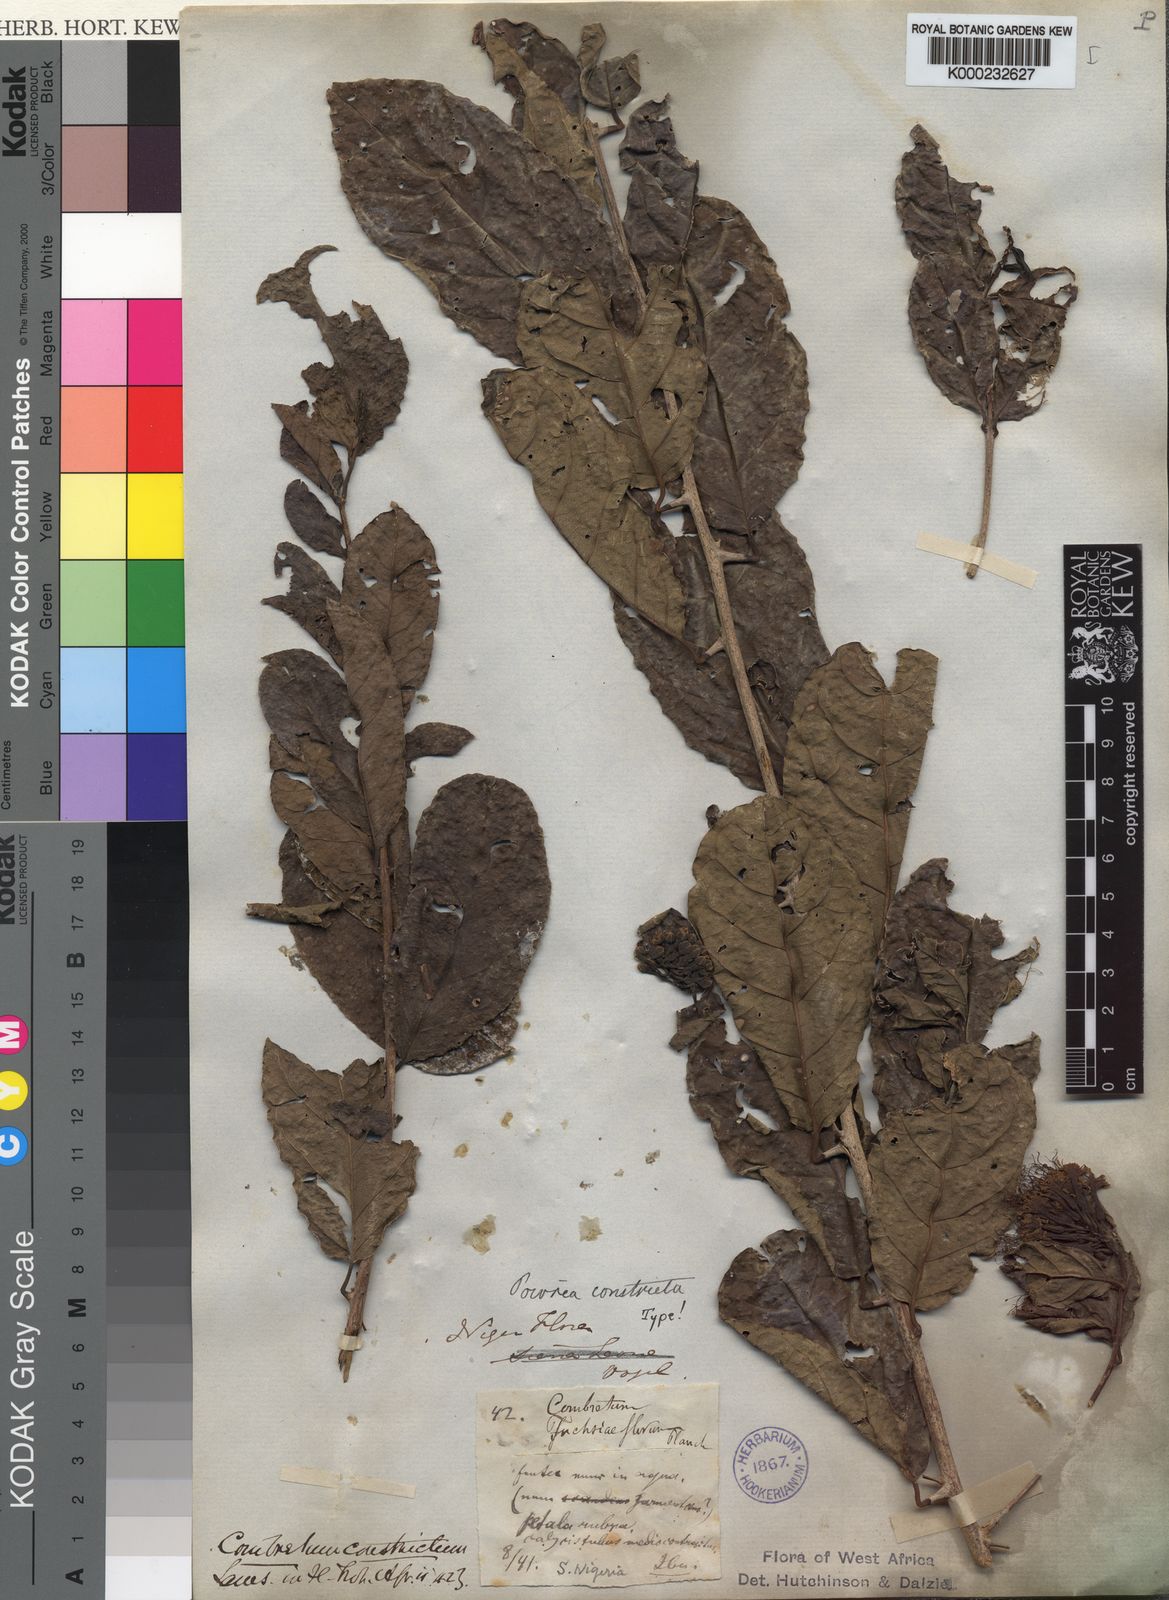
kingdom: Plantae
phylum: Tracheophyta
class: Magnoliopsida
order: Myrtales
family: Combretaceae
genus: Combretum
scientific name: Combretum constrictum
